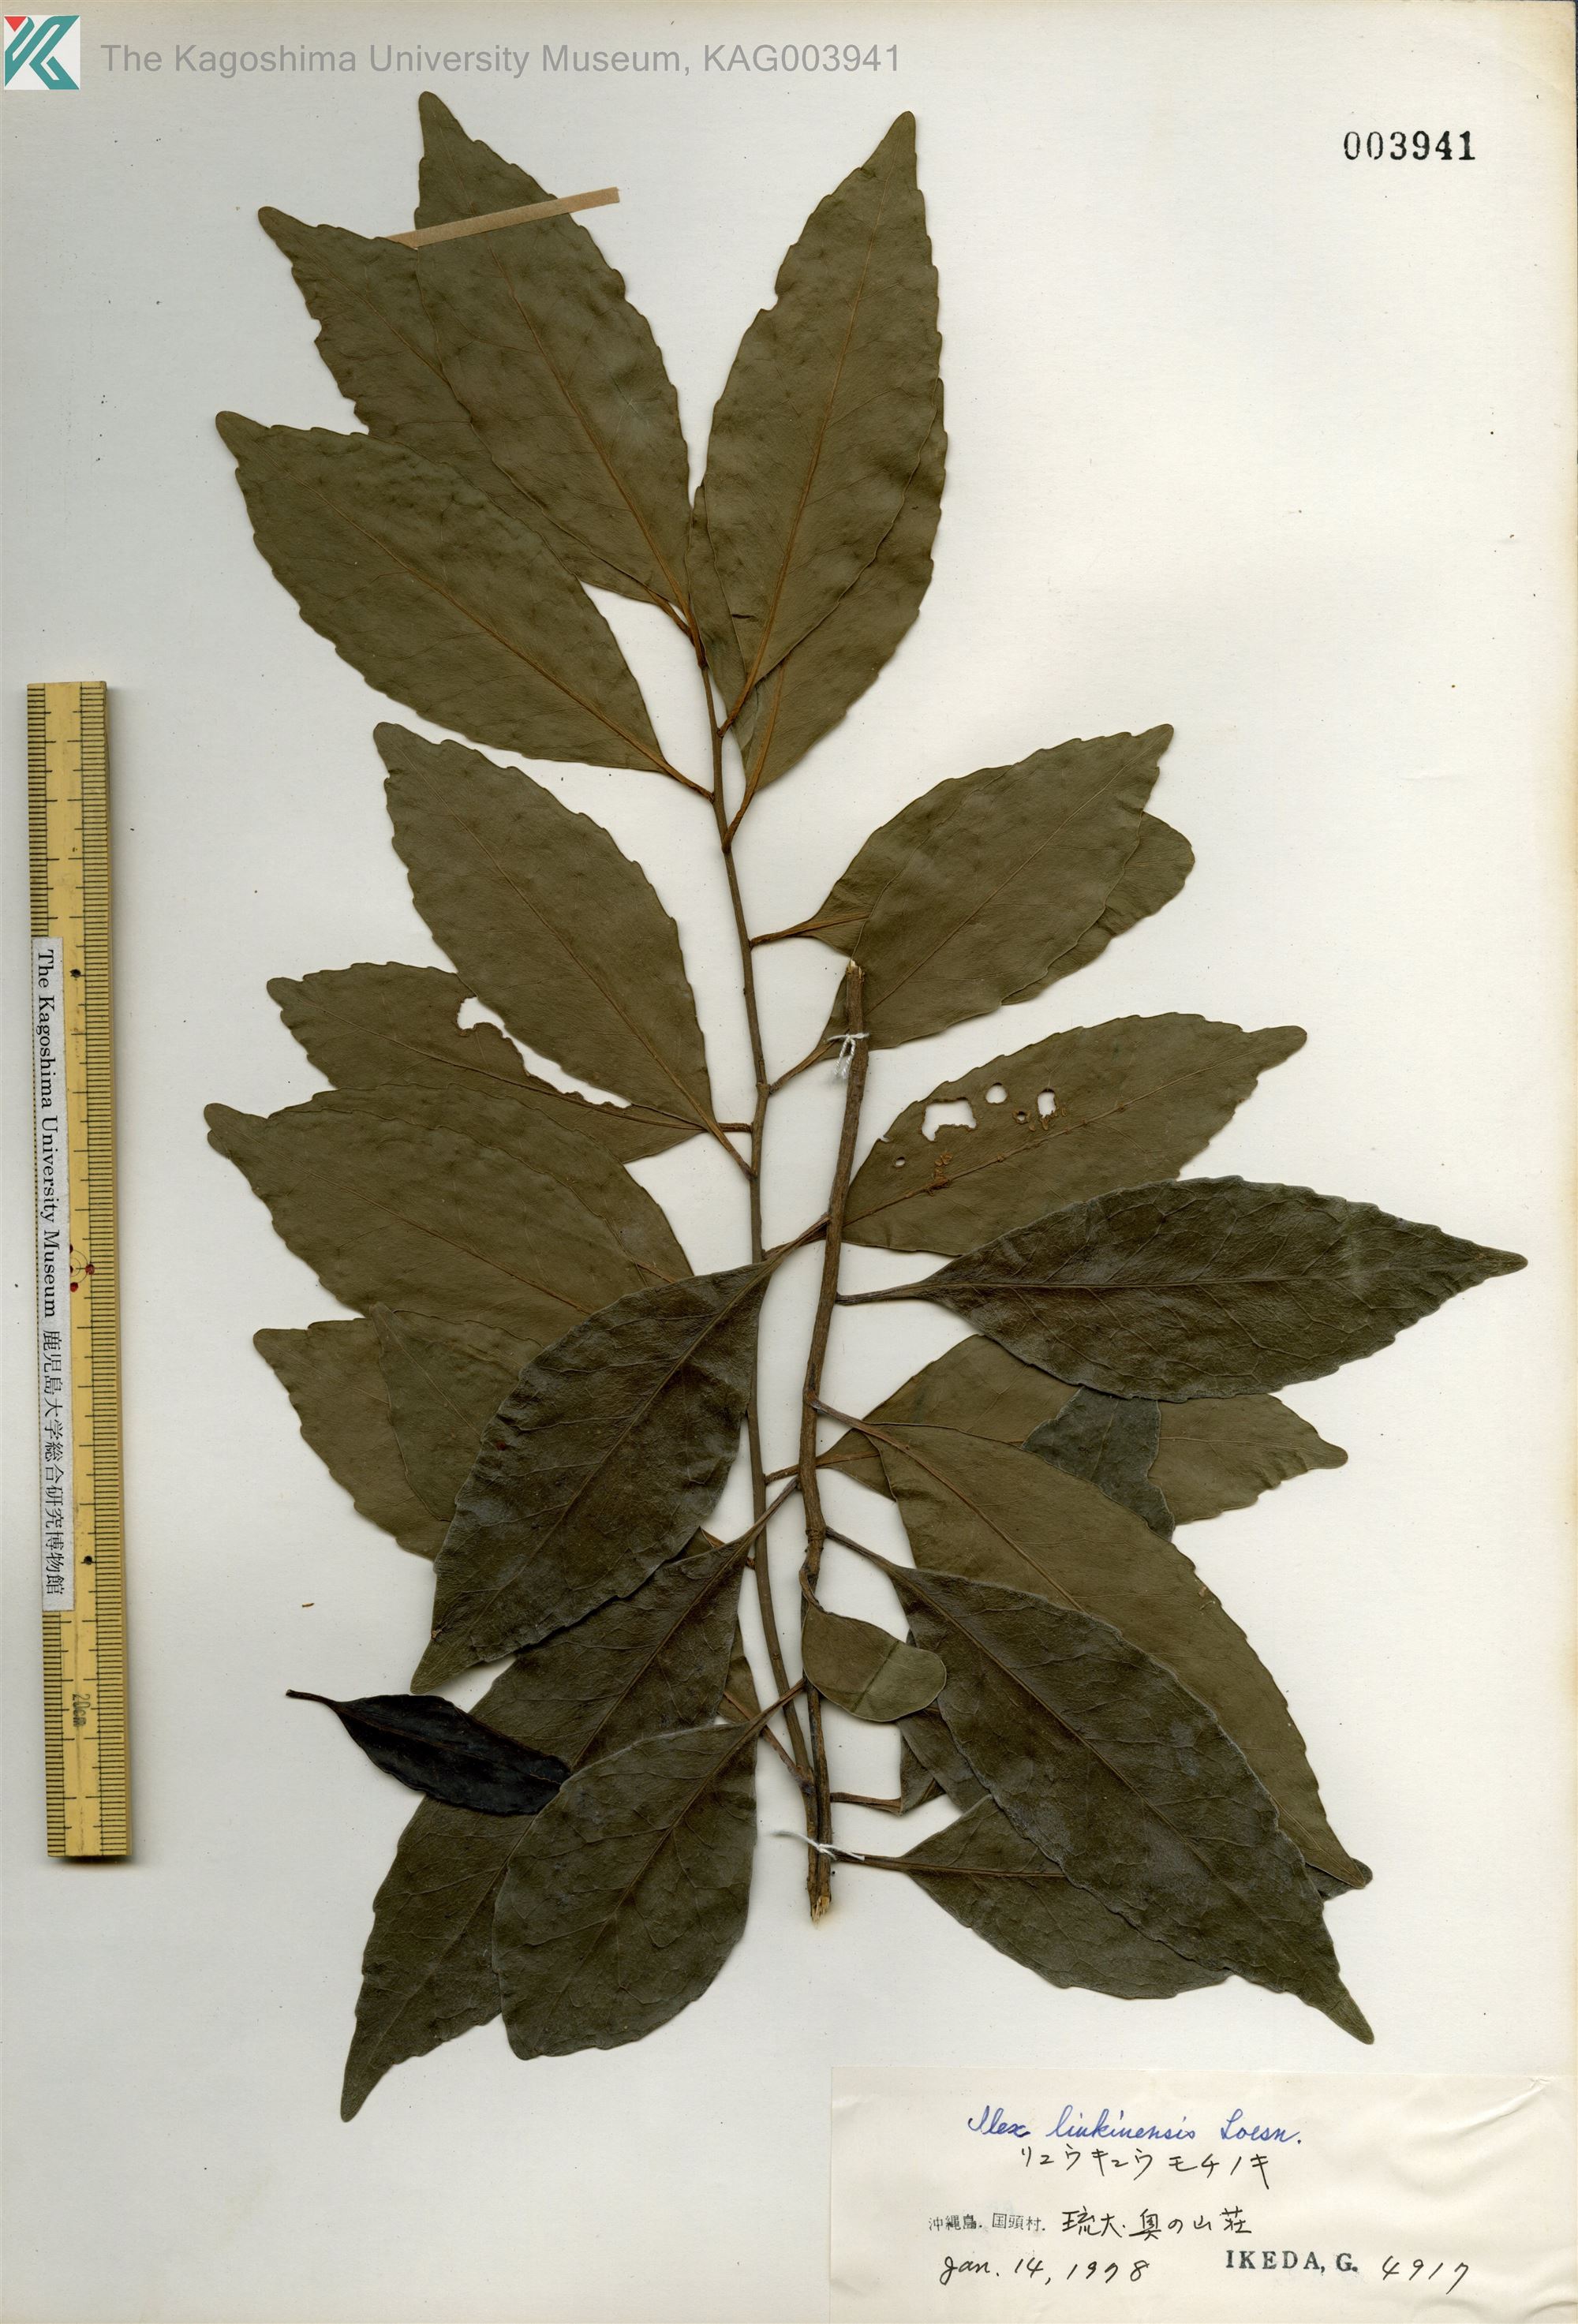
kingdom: Plantae
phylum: Tracheophyta
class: Magnoliopsida
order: Aquifoliales
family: Aquifoliaceae
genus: Ilex
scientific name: Ilex liukiuensis
